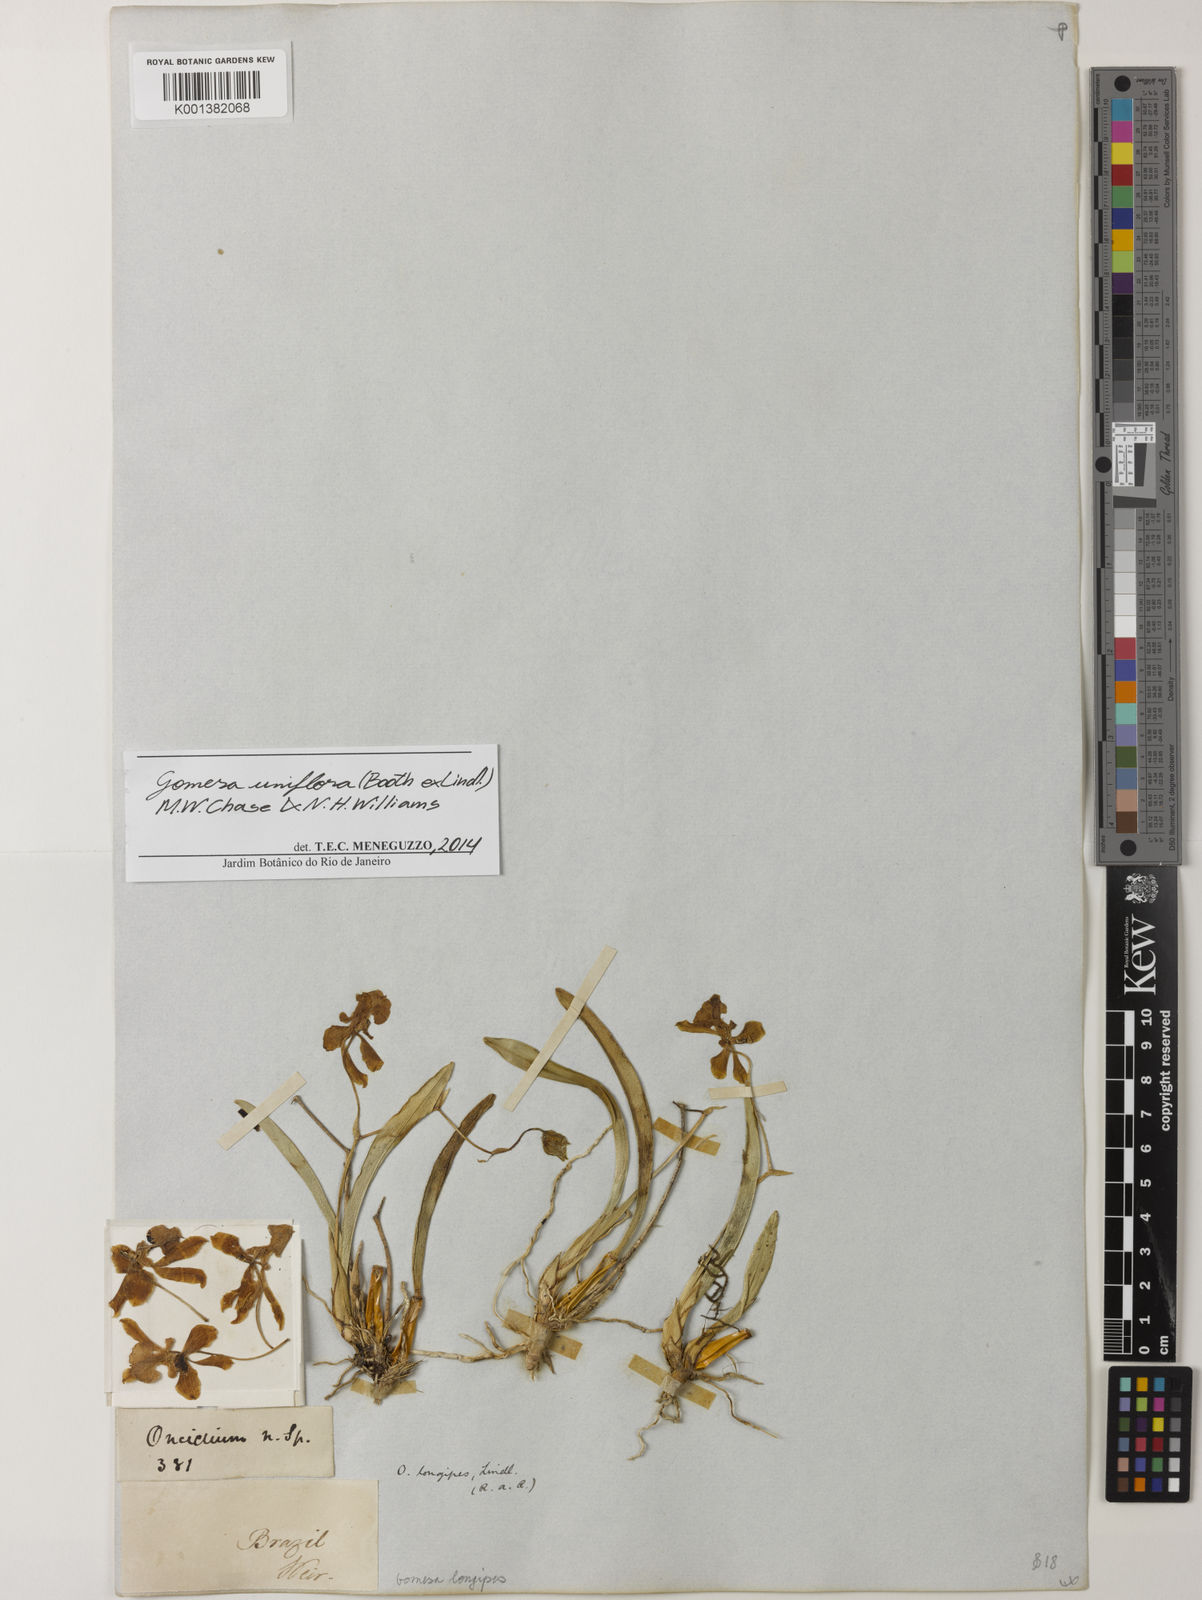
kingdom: Plantae
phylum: Tracheophyta
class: Liliopsida
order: Asparagales
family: Orchidaceae
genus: Gomesa
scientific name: Gomesa uniflora
